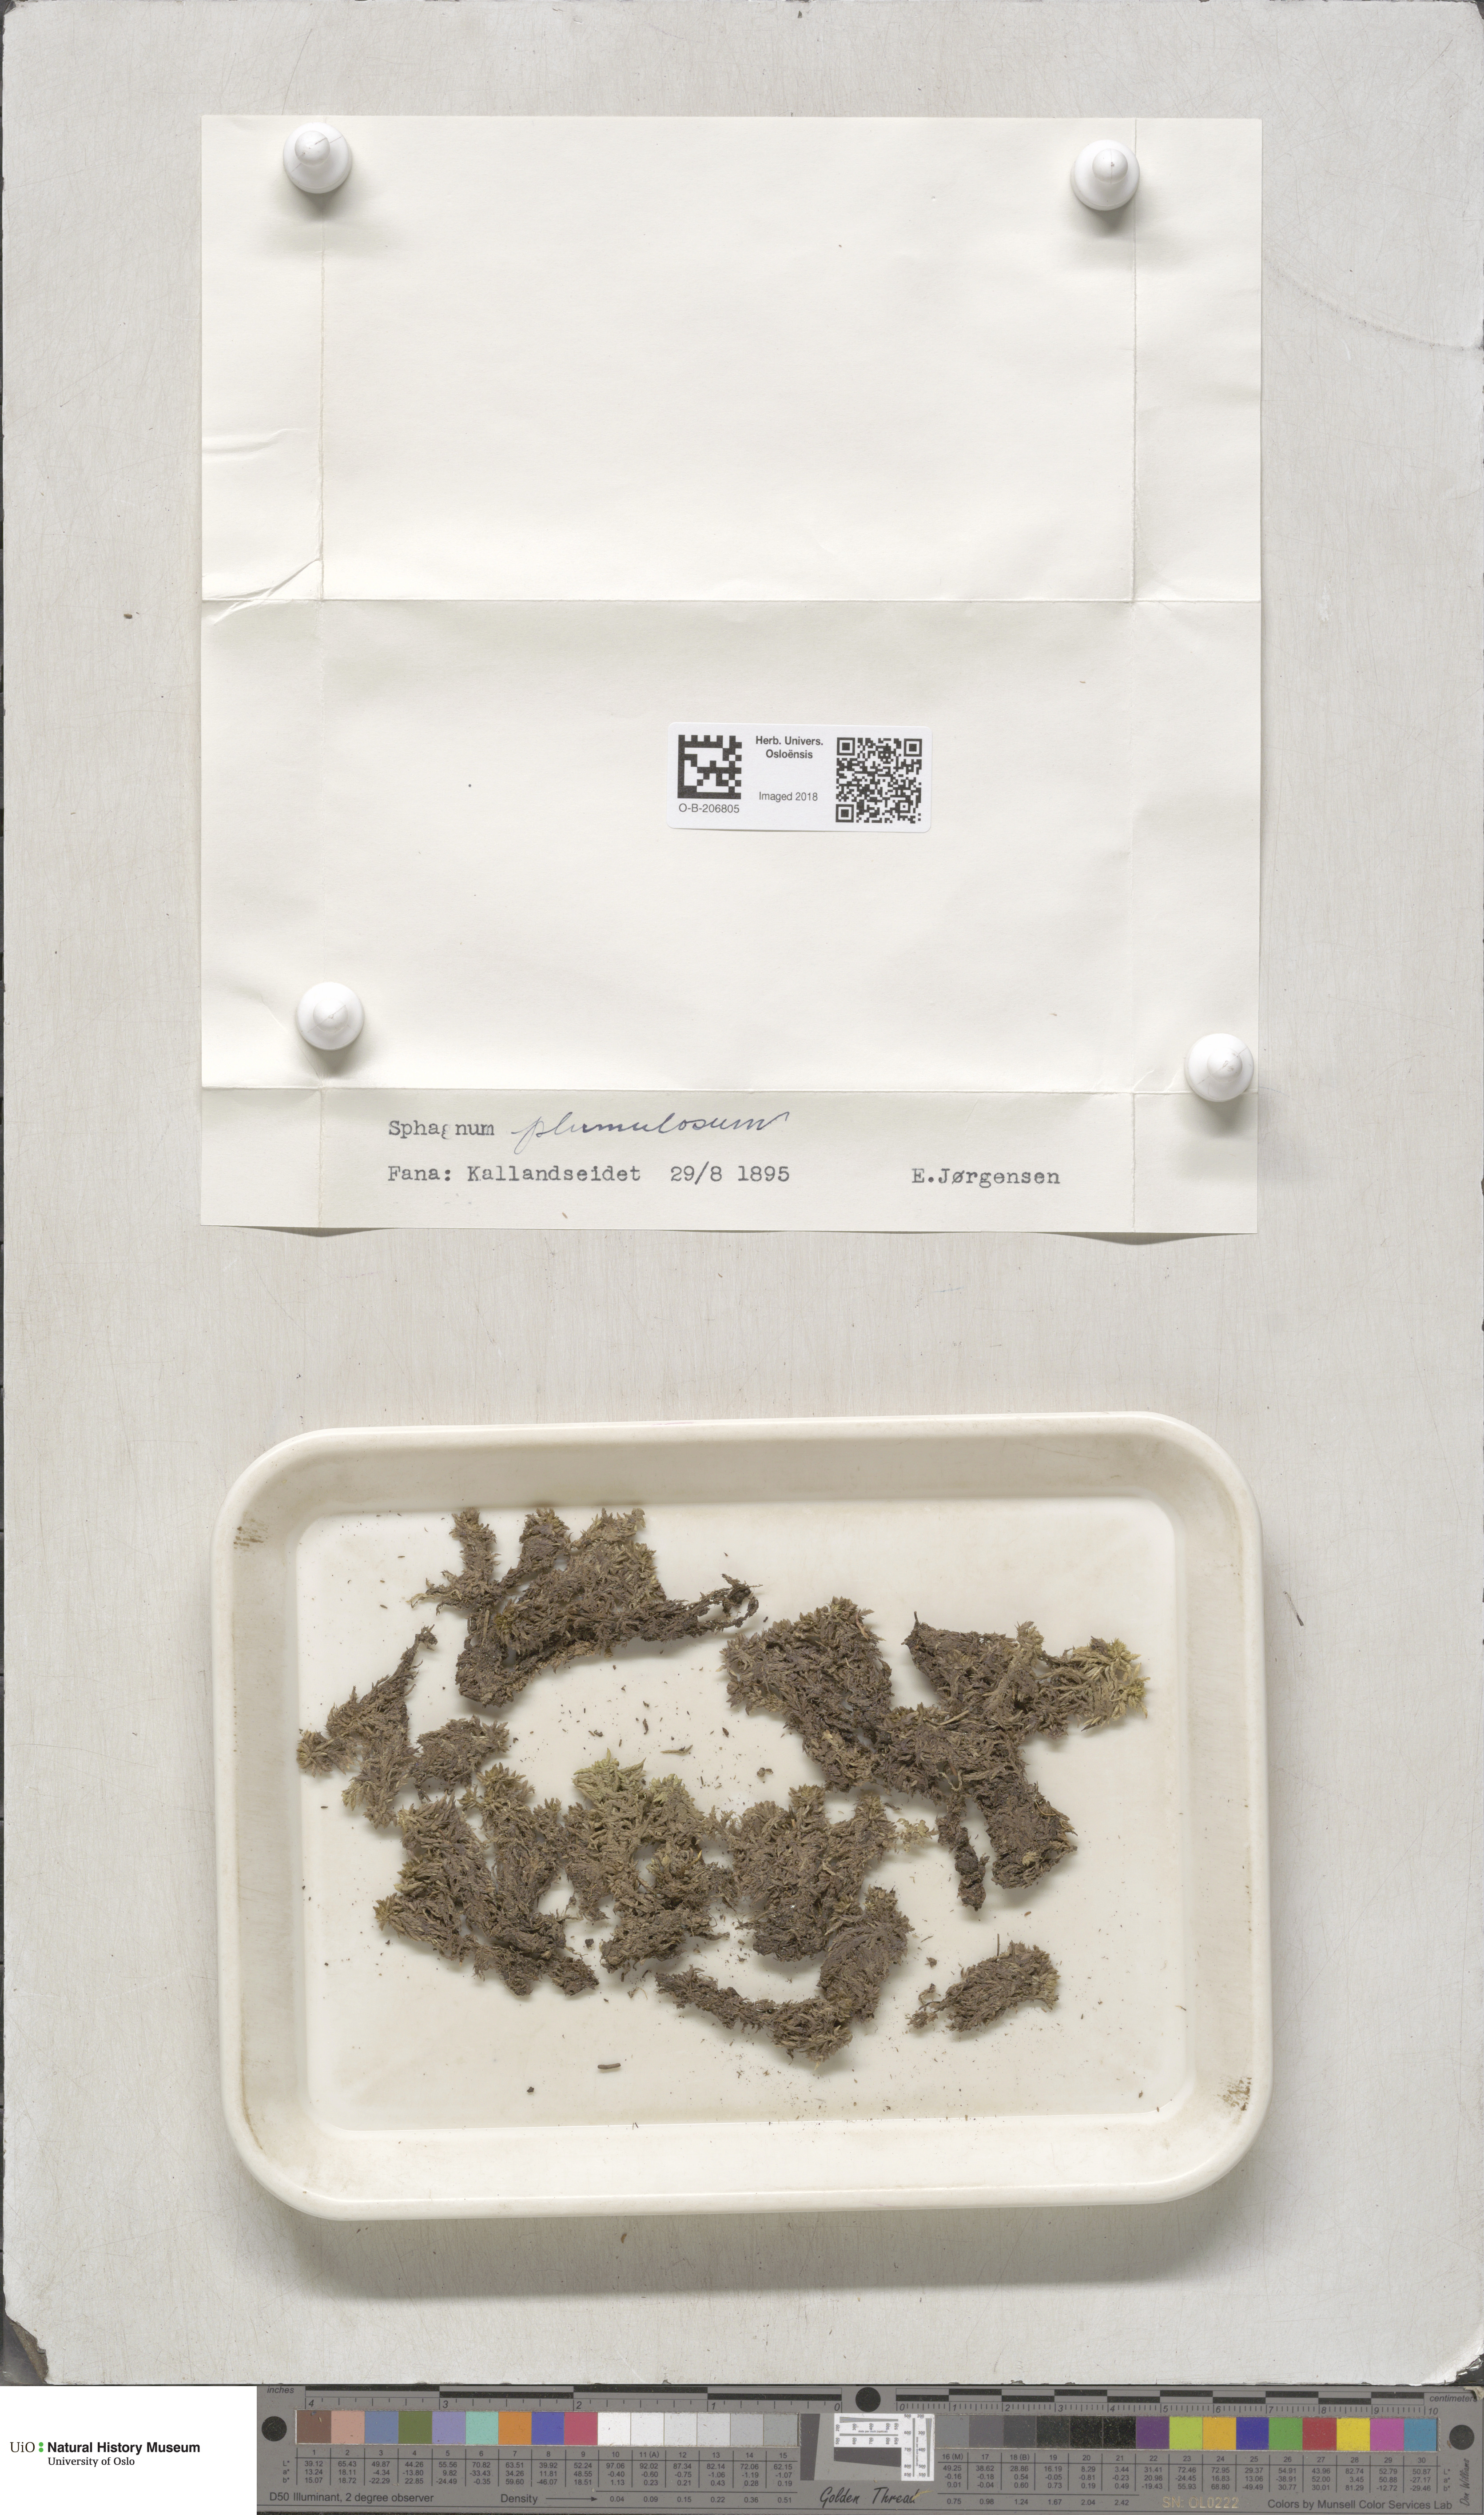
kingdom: Plantae
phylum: Bryophyta
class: Sphagnopsida
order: Sphagnales
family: Sphagnaceae
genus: Sphagnum
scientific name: Sphagnum subnitens
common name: Lustrous bog-moss
